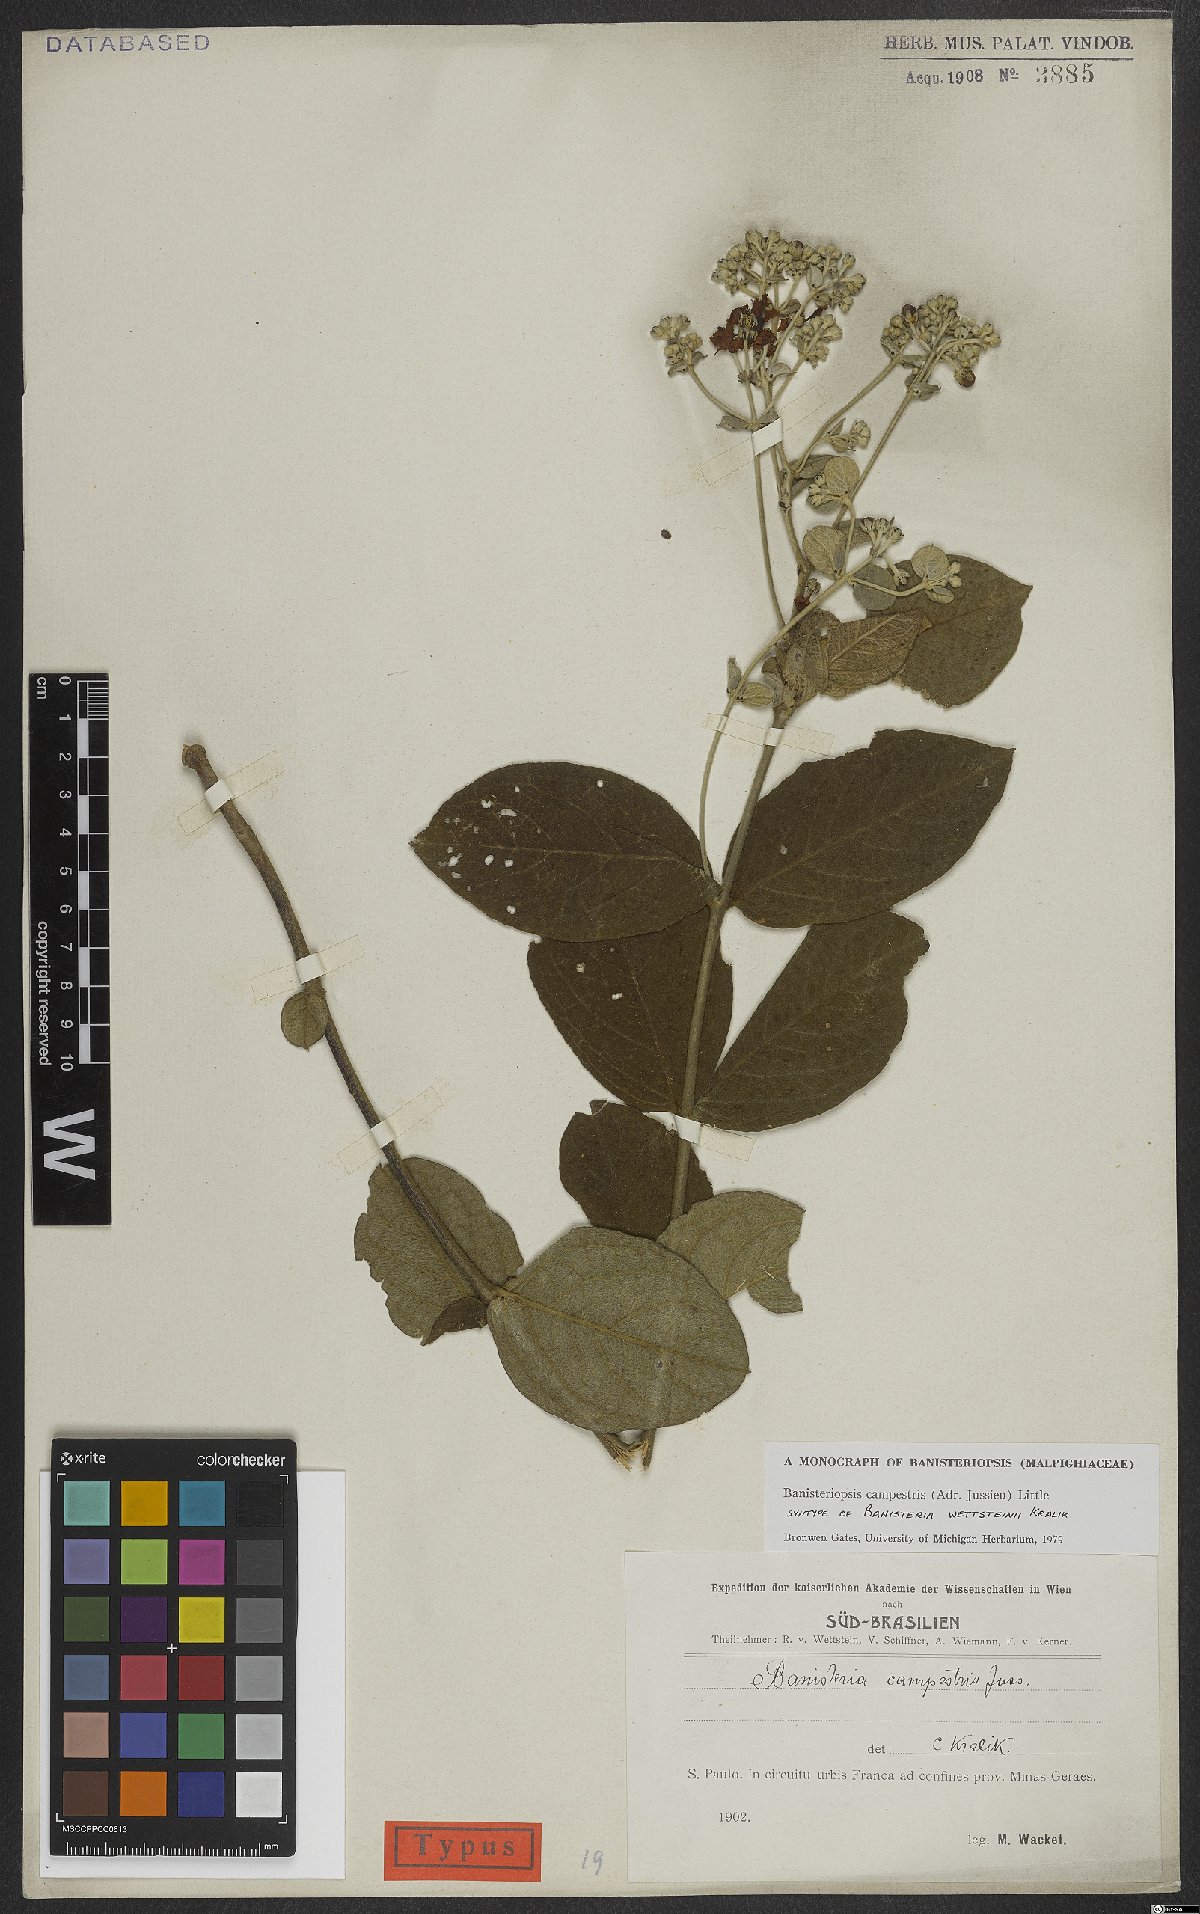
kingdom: Plantae
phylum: Tracheophyta
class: Magnoliopsida
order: Malpighiales
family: Malpighiaceae
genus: Banisteriopsis
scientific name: Banisteriopsis campestris
